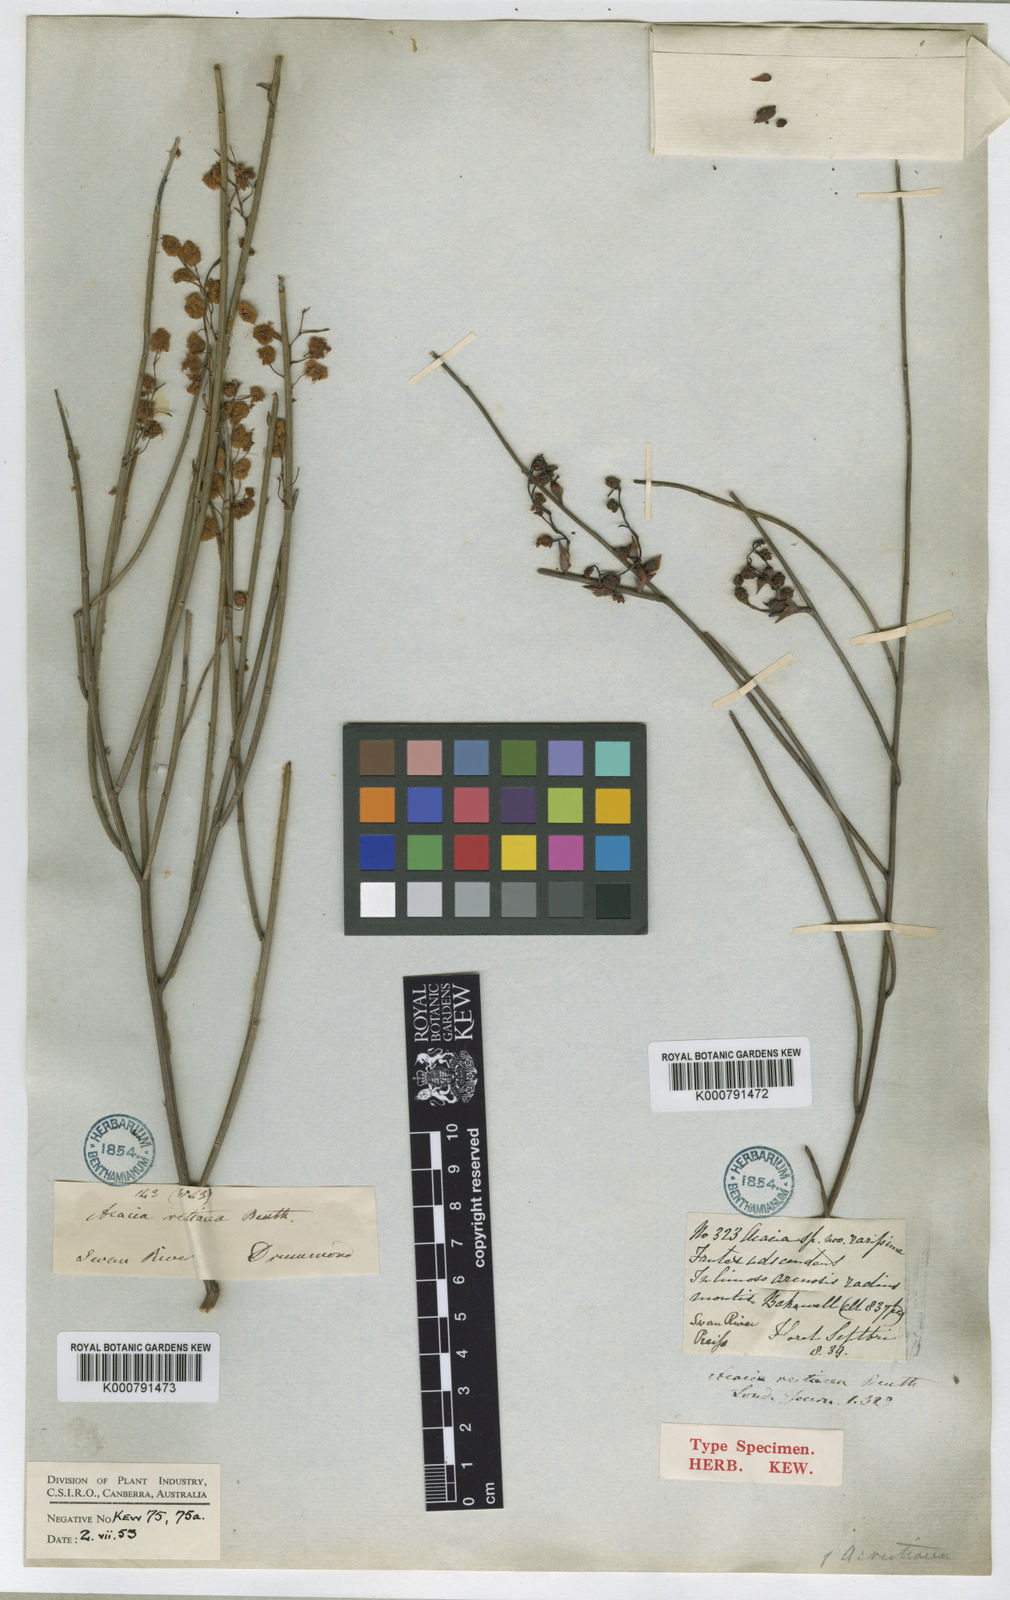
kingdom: Plantae
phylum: Tracheophyta
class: Magnoliopsida
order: Fabales
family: Fabaceae
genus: Acacia
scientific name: Acacia restiacea
